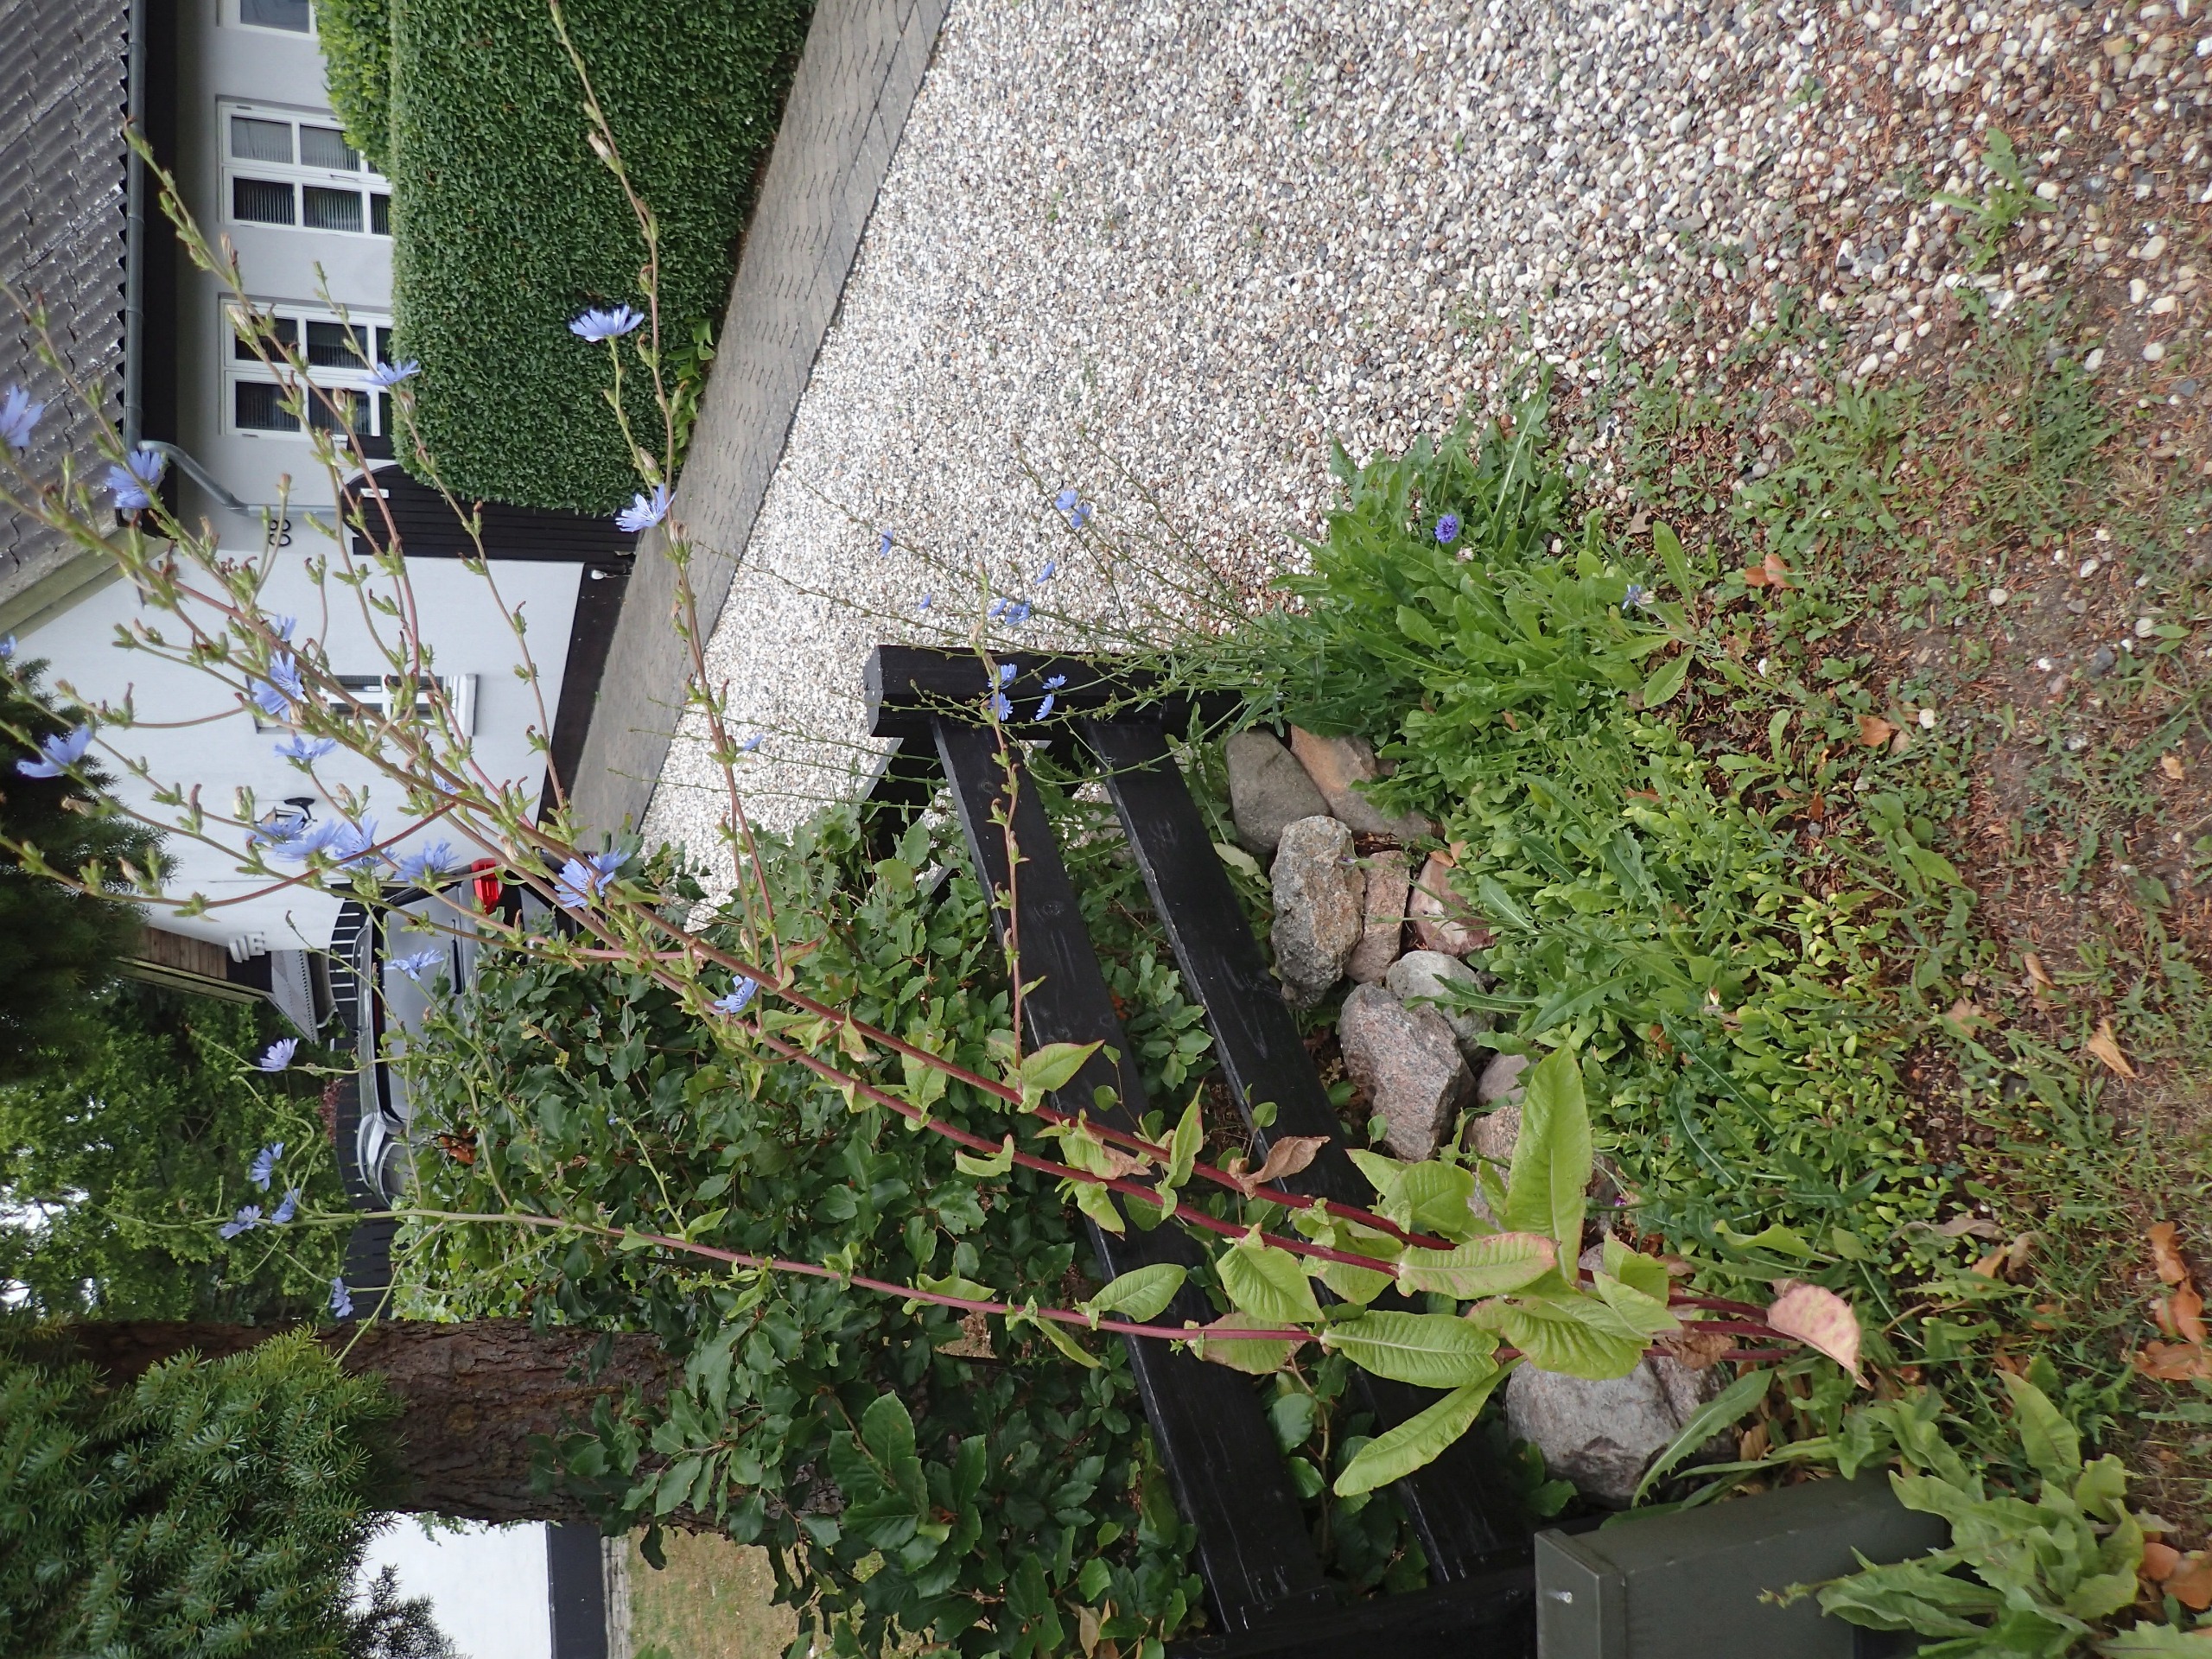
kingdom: Plantae
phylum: Tracheophyta
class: Magnoliopsida
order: Asterales
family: Asteraceae
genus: Cichorium
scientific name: Cichorium intybus
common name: Cikorie
